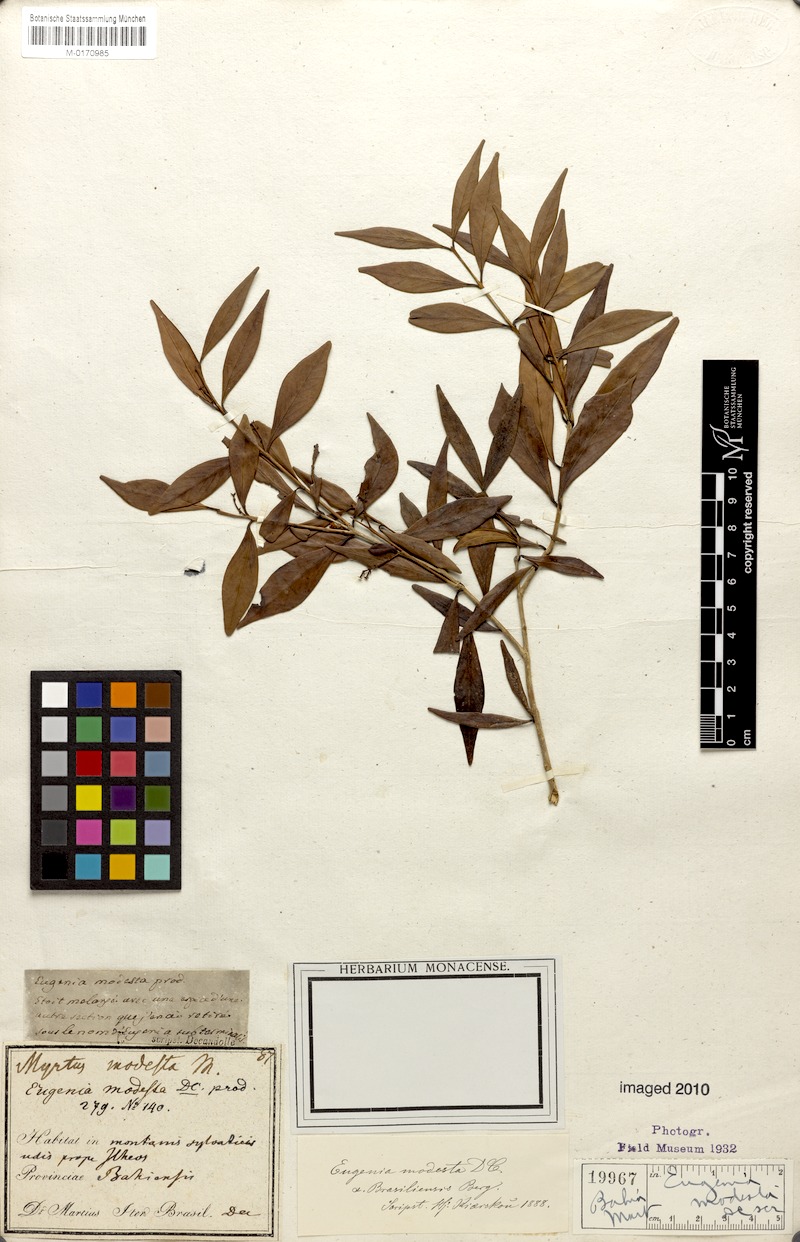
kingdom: Plantae
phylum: Tracheophyta
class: Magnoliopsida
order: Myrtales
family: Myrtaceae
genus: Eugenia
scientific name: Eugenia modesta
